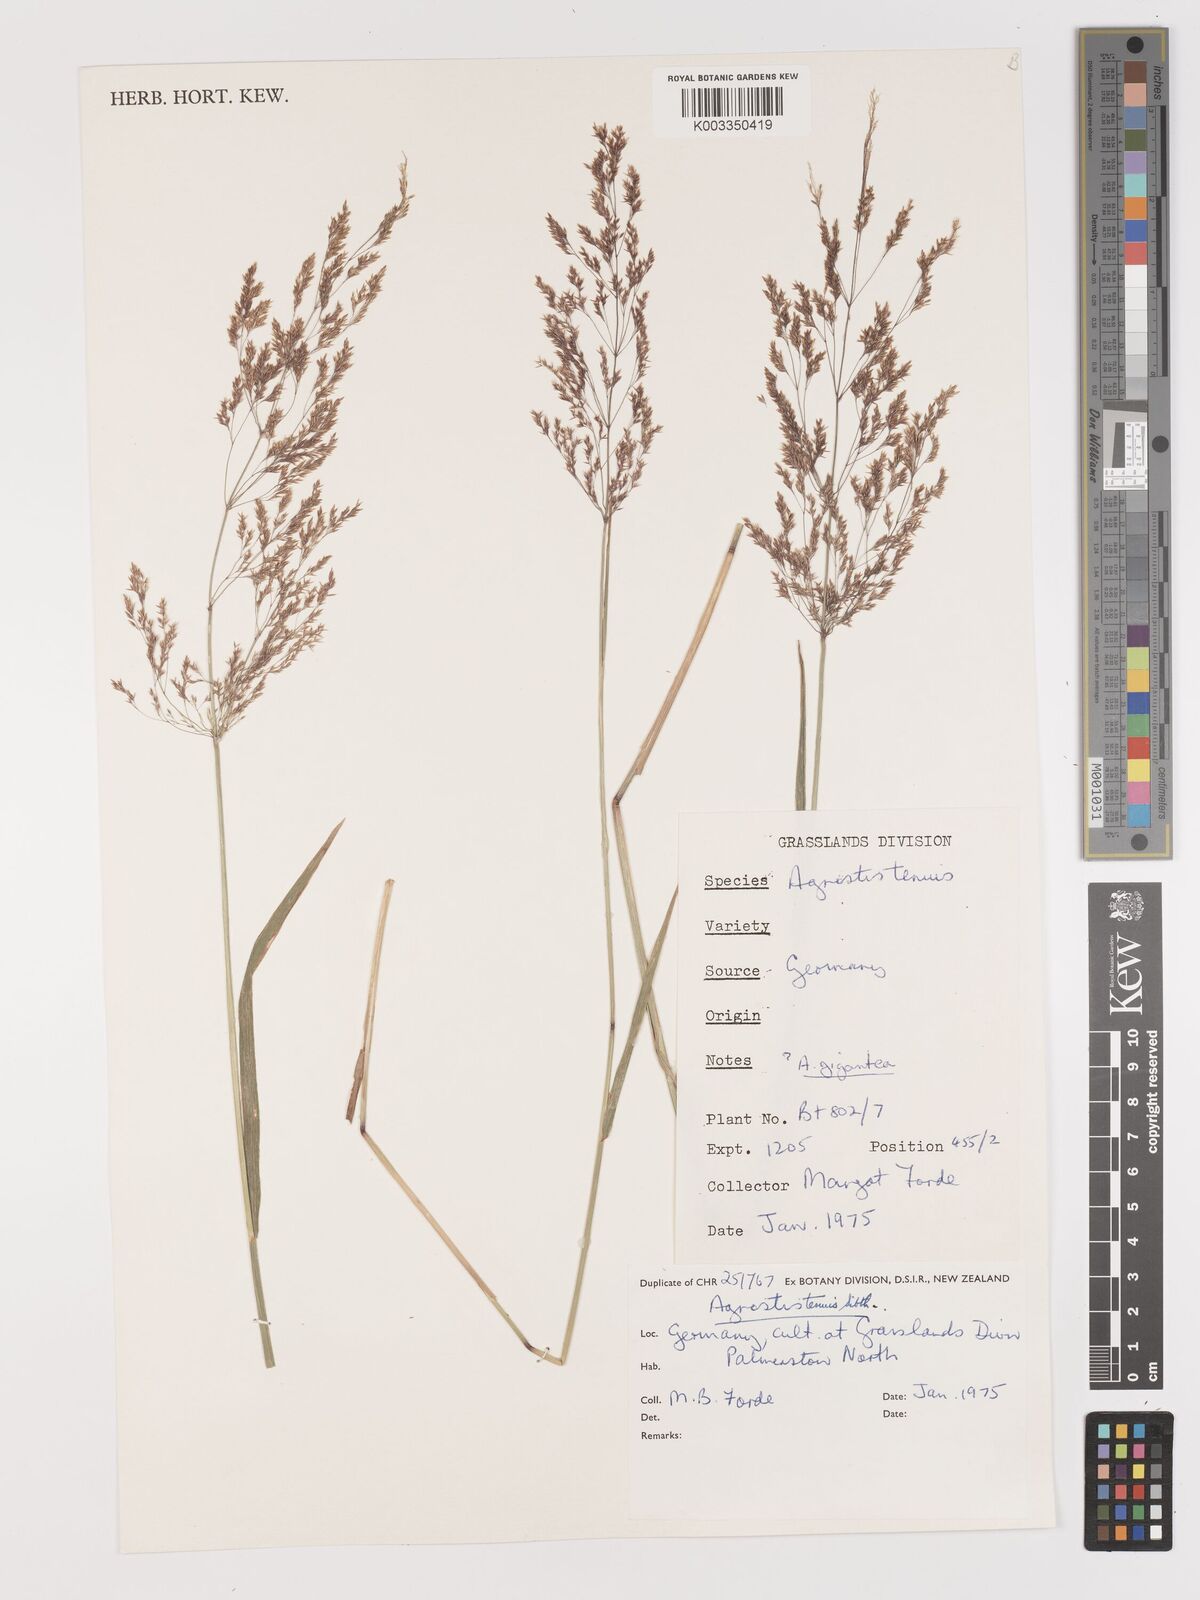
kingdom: Plantae
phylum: Tracheophyta
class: Liliopsida
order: Poales
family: Poaceae
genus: Agrostis
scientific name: Agrostis capillaris
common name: Colonial bentgrass
